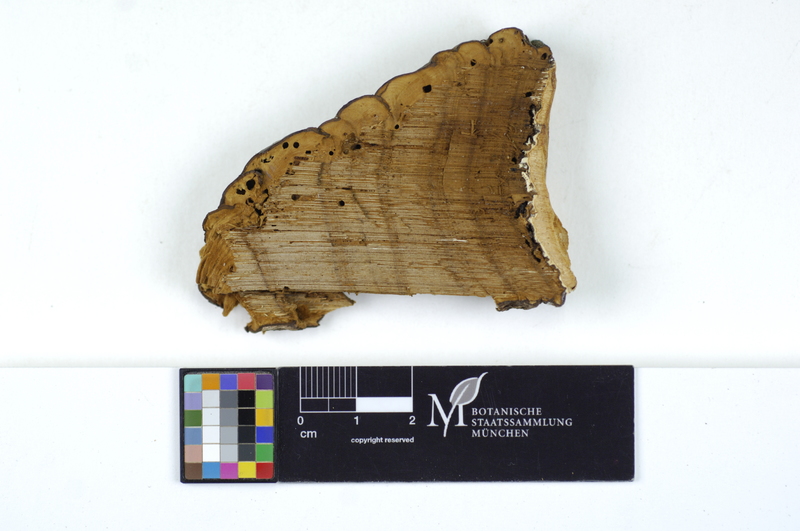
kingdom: Fungi
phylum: Basidiomycota
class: Agaricomycetes
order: Polyporales
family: Irpicaceae
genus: Gloeoporus
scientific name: Gloeoporus pannocinctus
